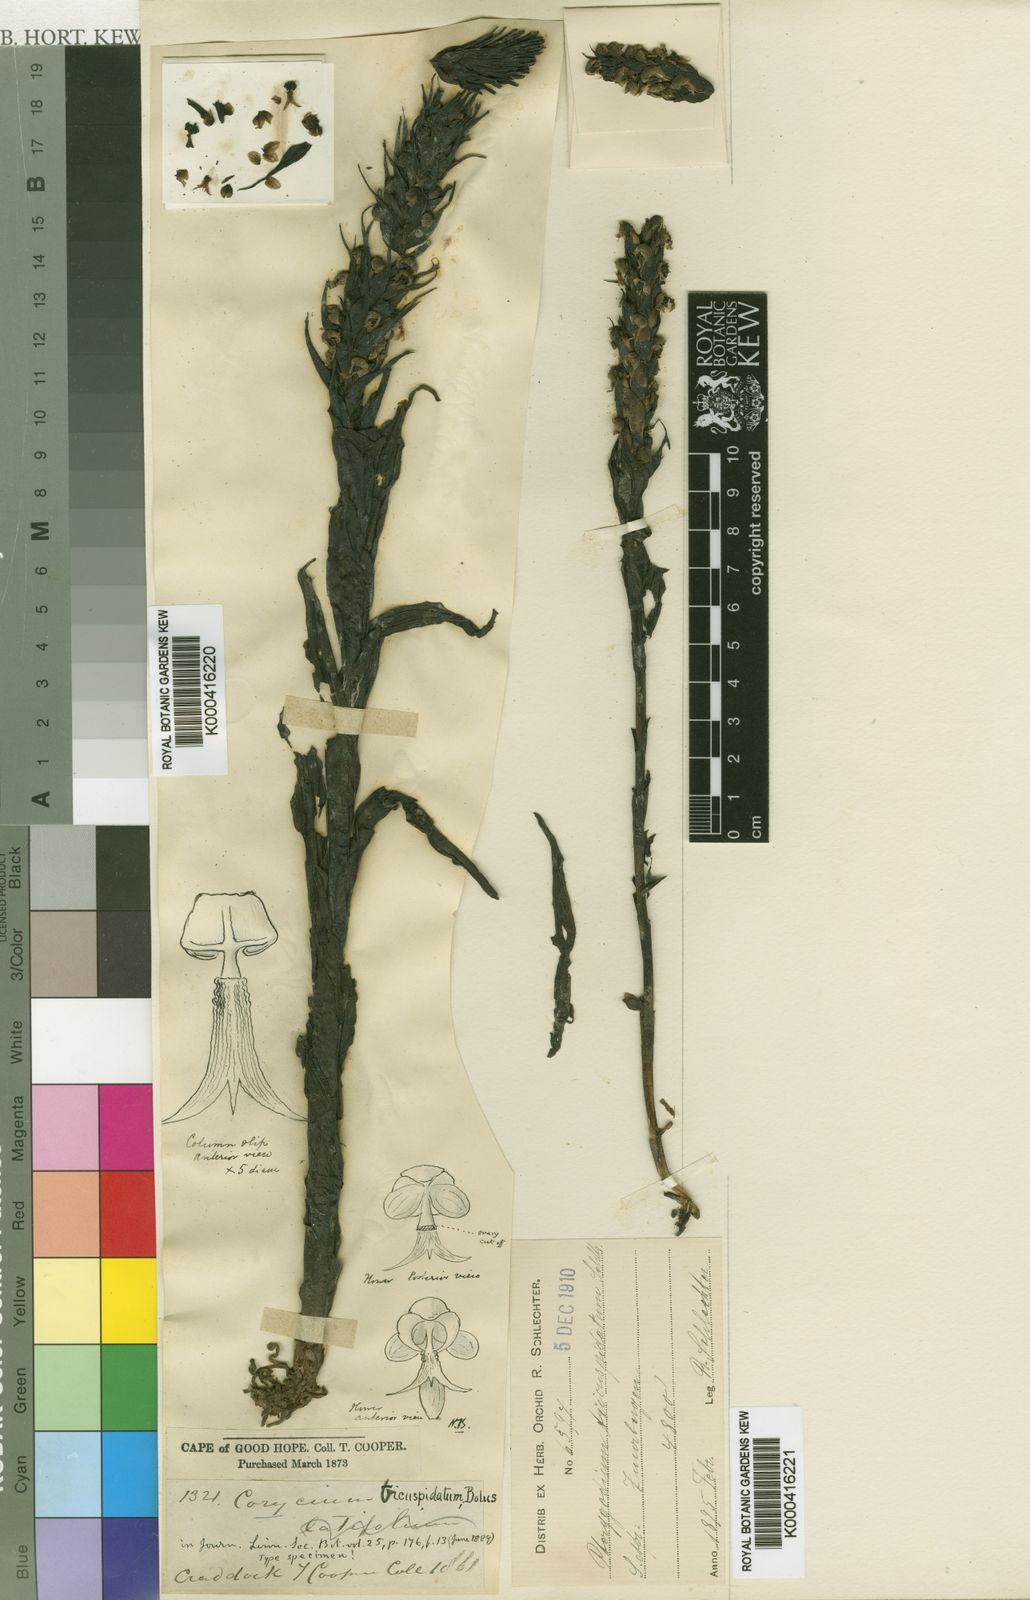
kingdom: Plantae
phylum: Tracheophyta
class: Liliopsida
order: Asparagales
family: Orchidaceae
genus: Corycium
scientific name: Corycium tricuspidatum
